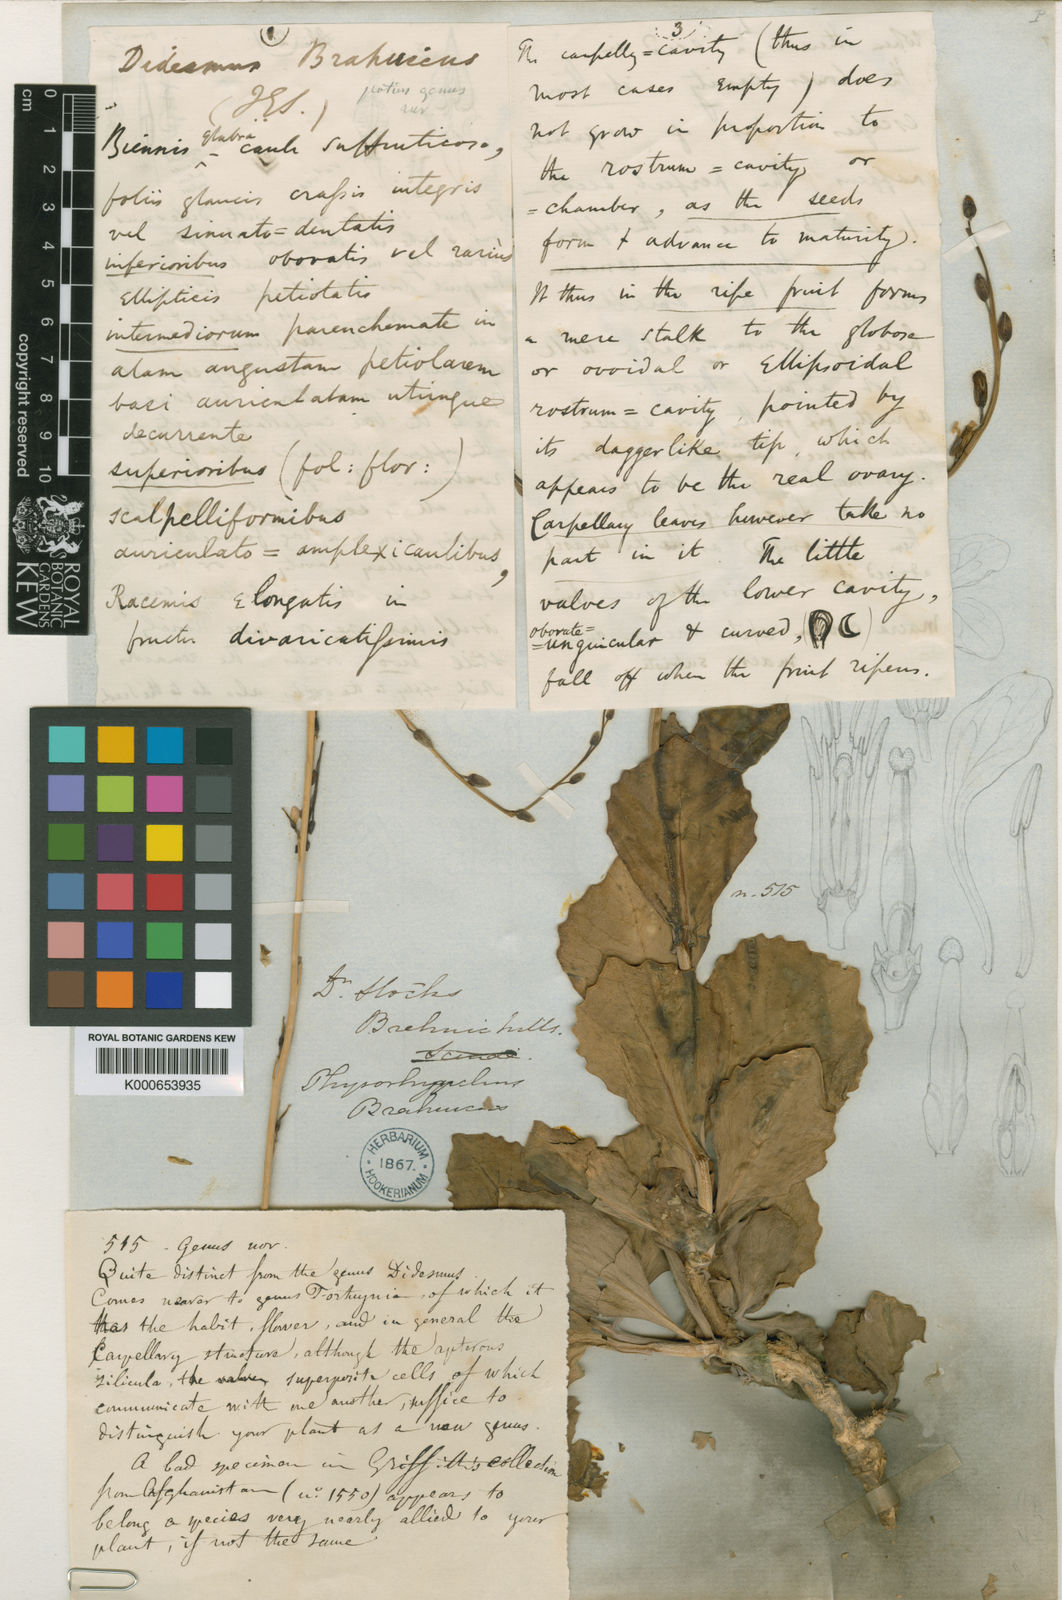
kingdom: Plantae
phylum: Tracheophyta
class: Magnoliopsida
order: Brassicales
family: Brassicaceae
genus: Physorhynchus
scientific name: Physorhynchus brahuicus
